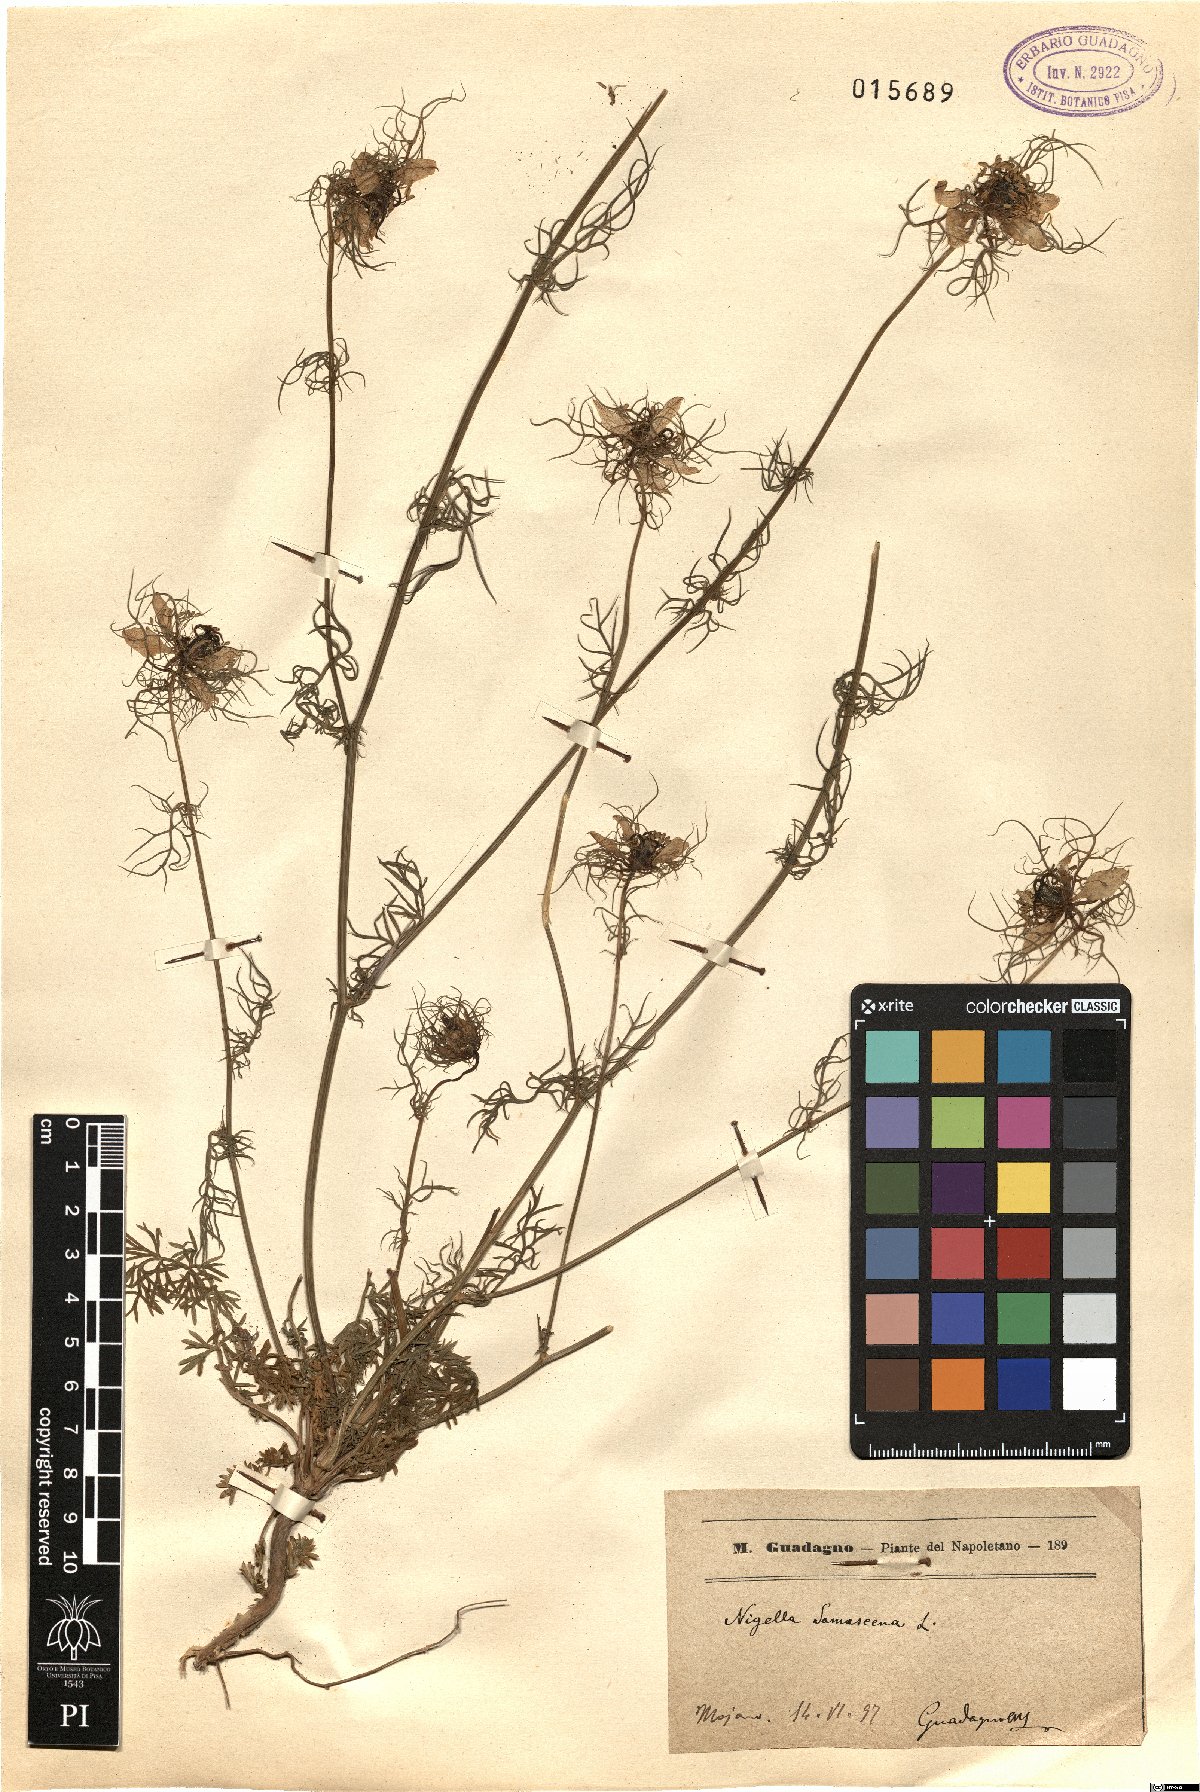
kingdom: Plantae
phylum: Tracheophyta
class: Magnoliopsida
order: Ranunculales
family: Ranunculaceae
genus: Nigella
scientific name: Nigella damascena
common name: Love-in-a-mist
